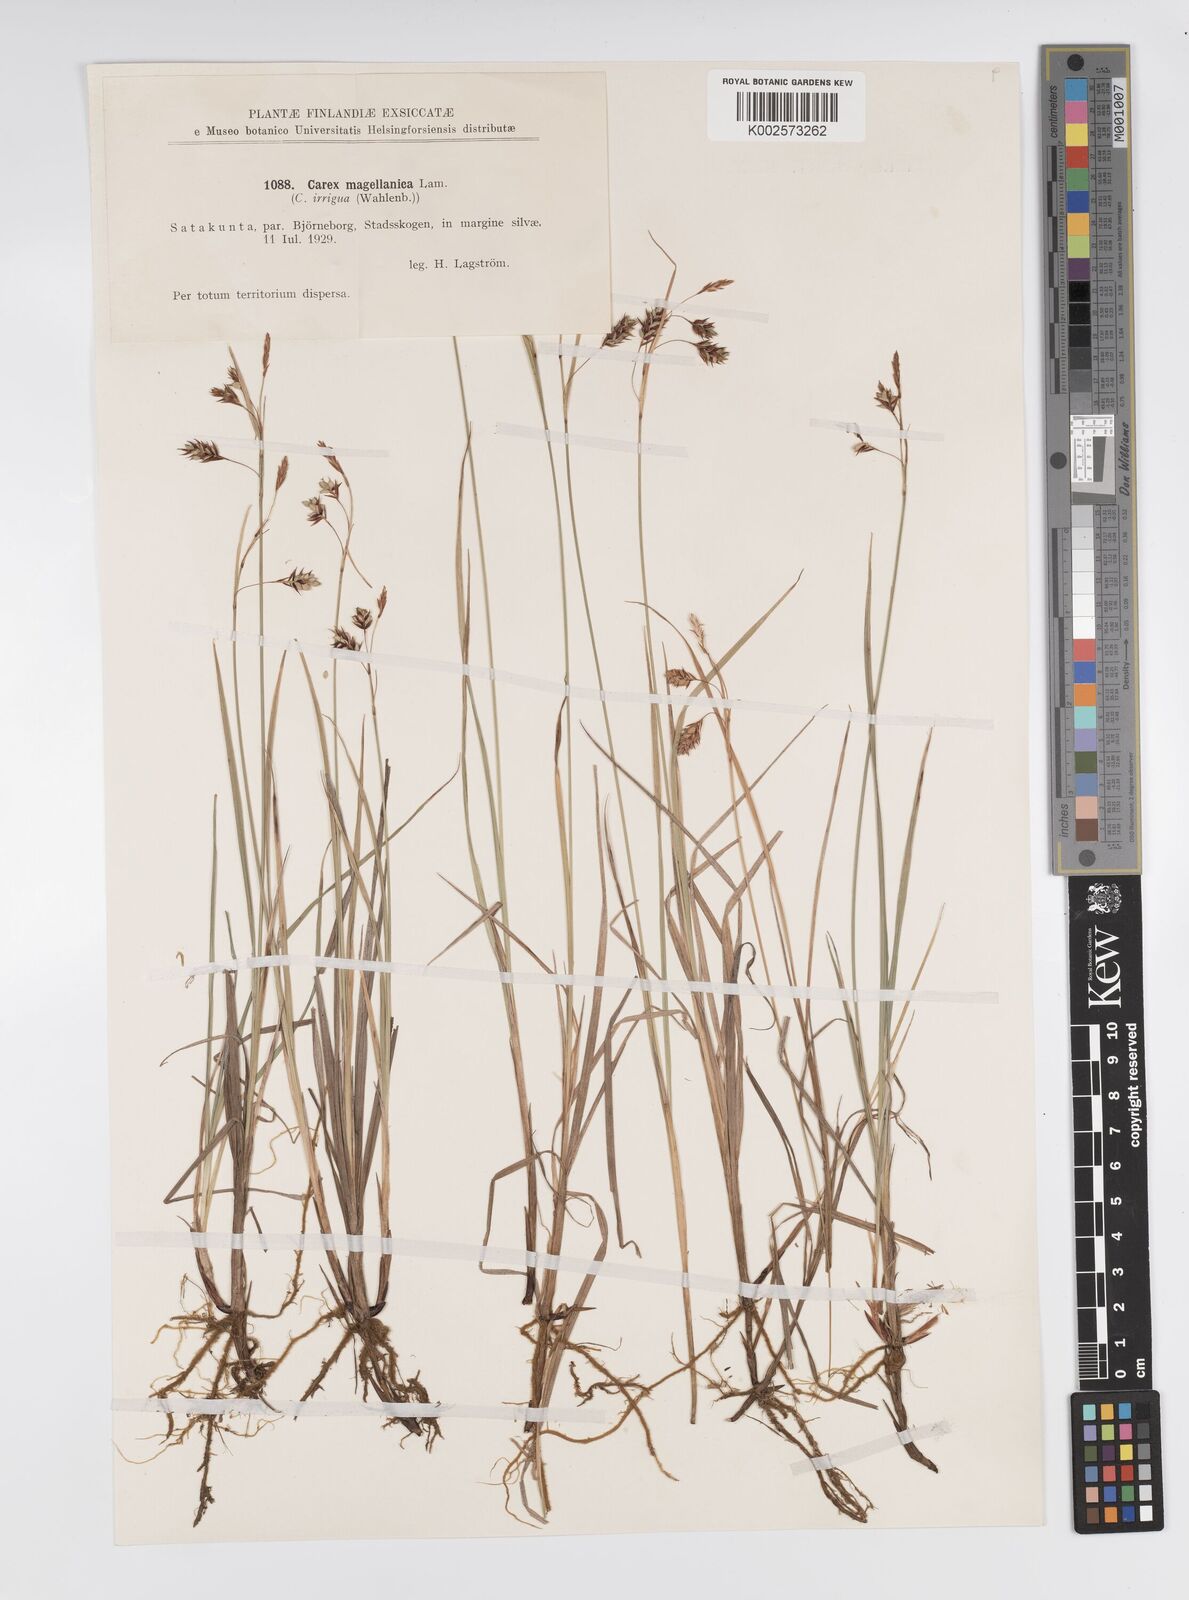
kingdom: Plantae
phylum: Tracheophyta
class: Liliopsida
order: Poales
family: Cyperaceae
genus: Carex
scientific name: Carex magellanica
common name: Bog sedge
